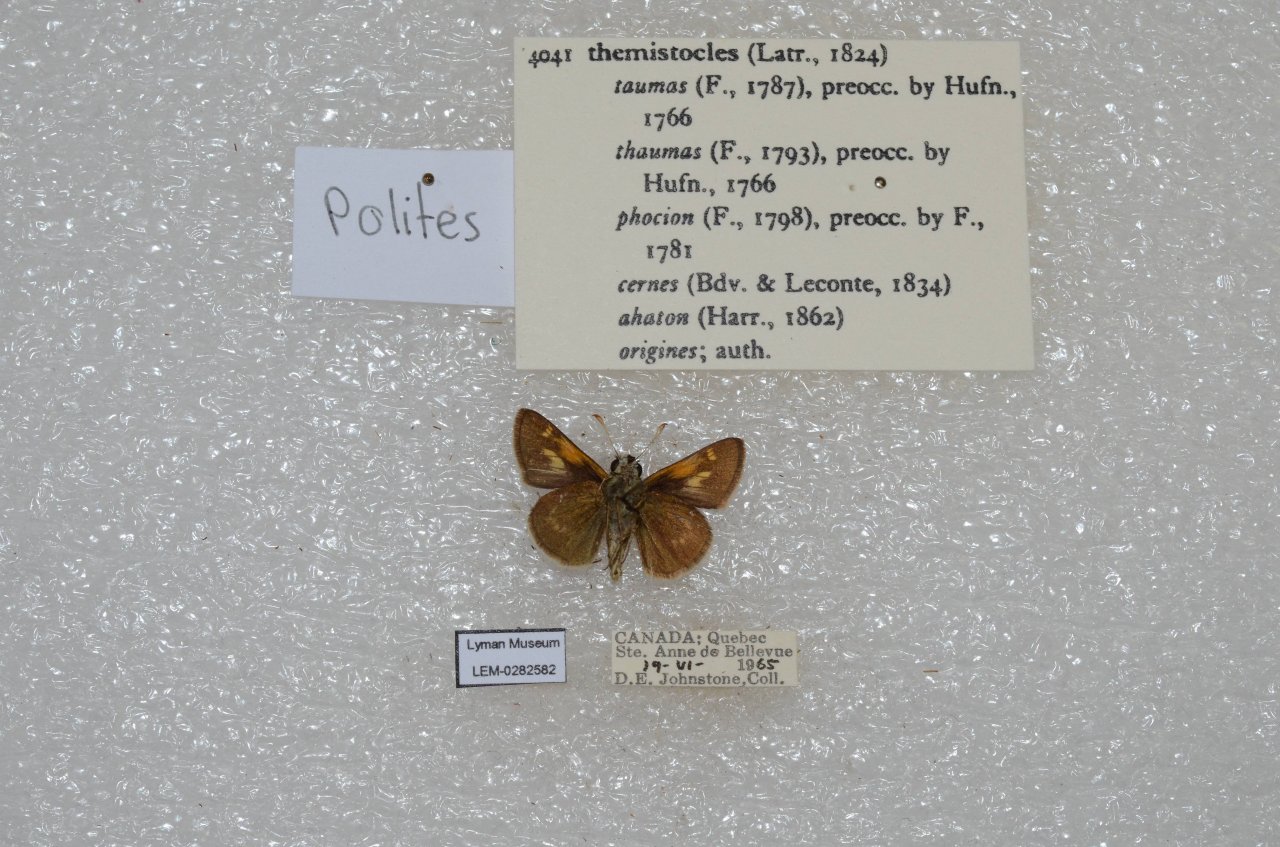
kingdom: Animalia
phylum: Arthropoda
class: Insecta
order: Lepidoptera
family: Hesperiidae
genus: Polites
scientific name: Polites themistocles
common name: Tawny-edged Skipper
